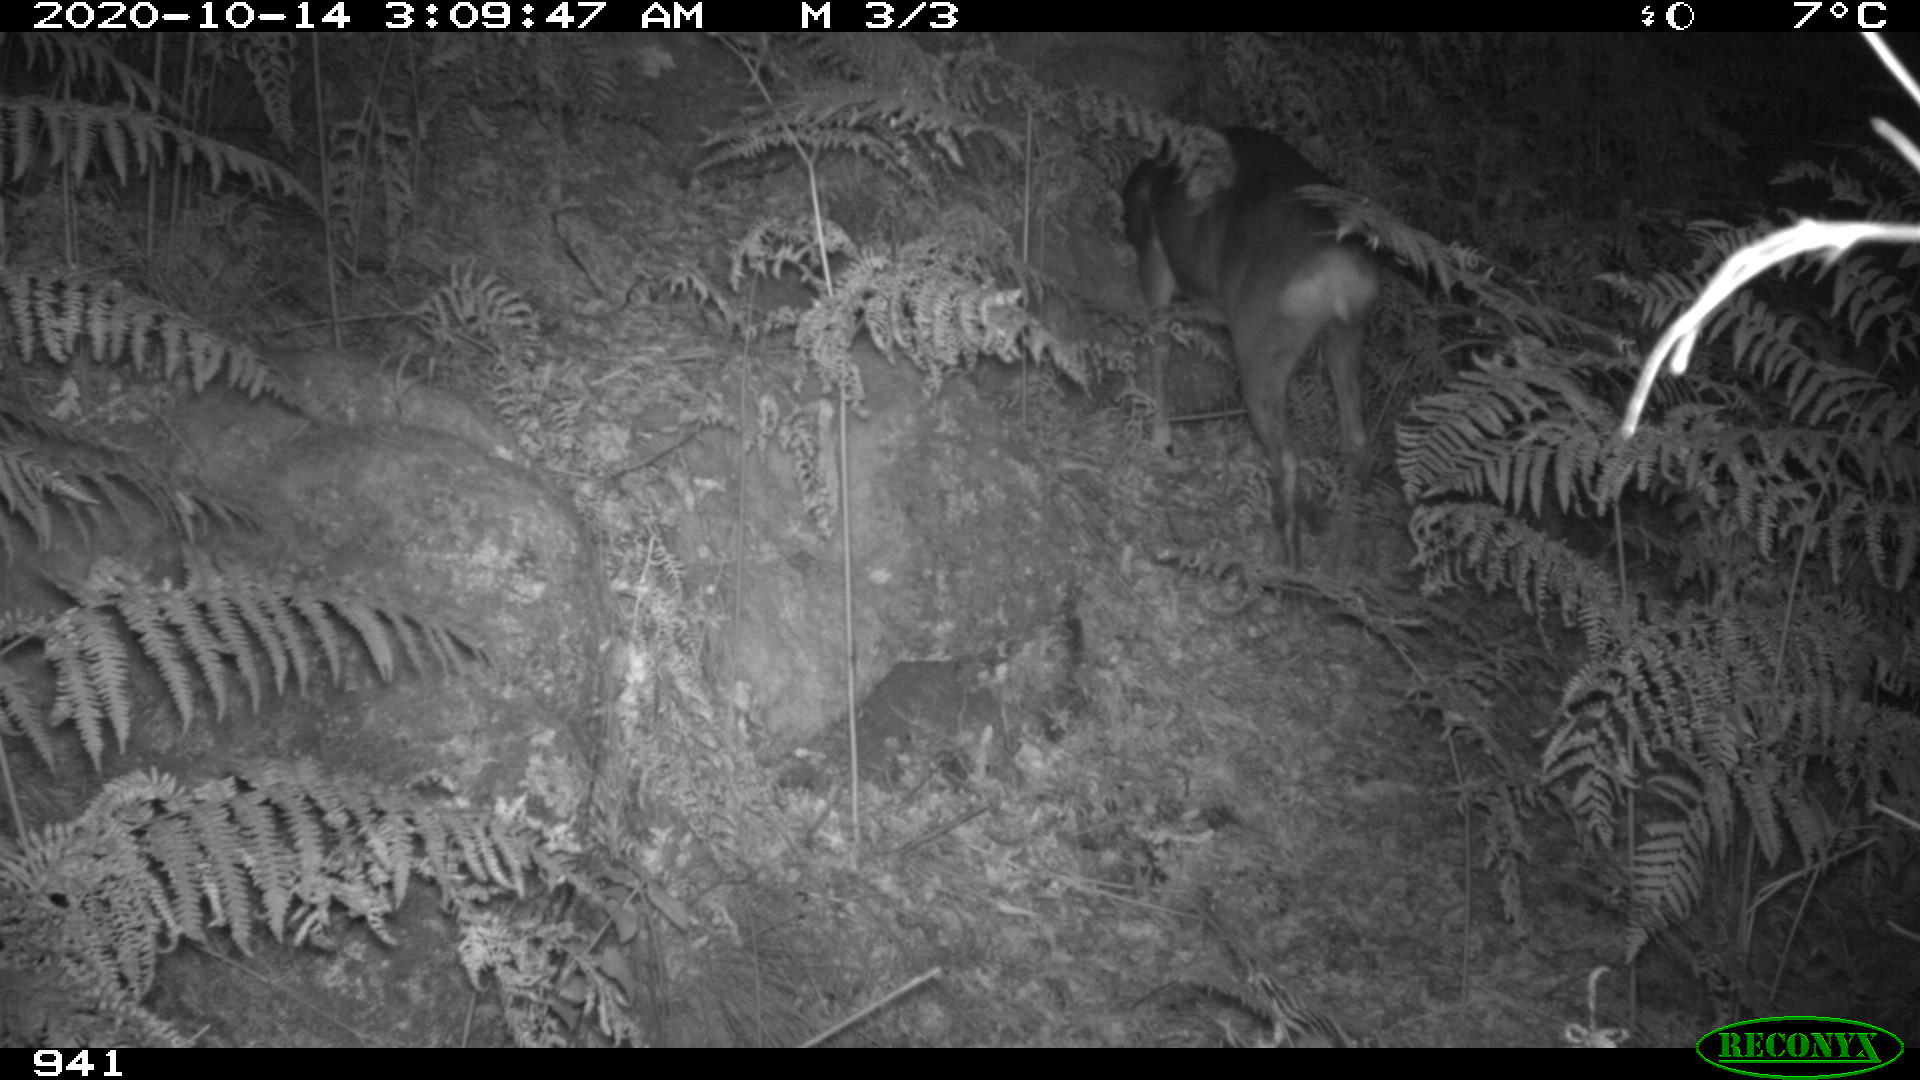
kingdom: Animalia
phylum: Chordata
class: Mammalia
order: Artiodactyla
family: Cervidae
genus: Capreolus
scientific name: Capreolus capreolus
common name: Western roe deer
